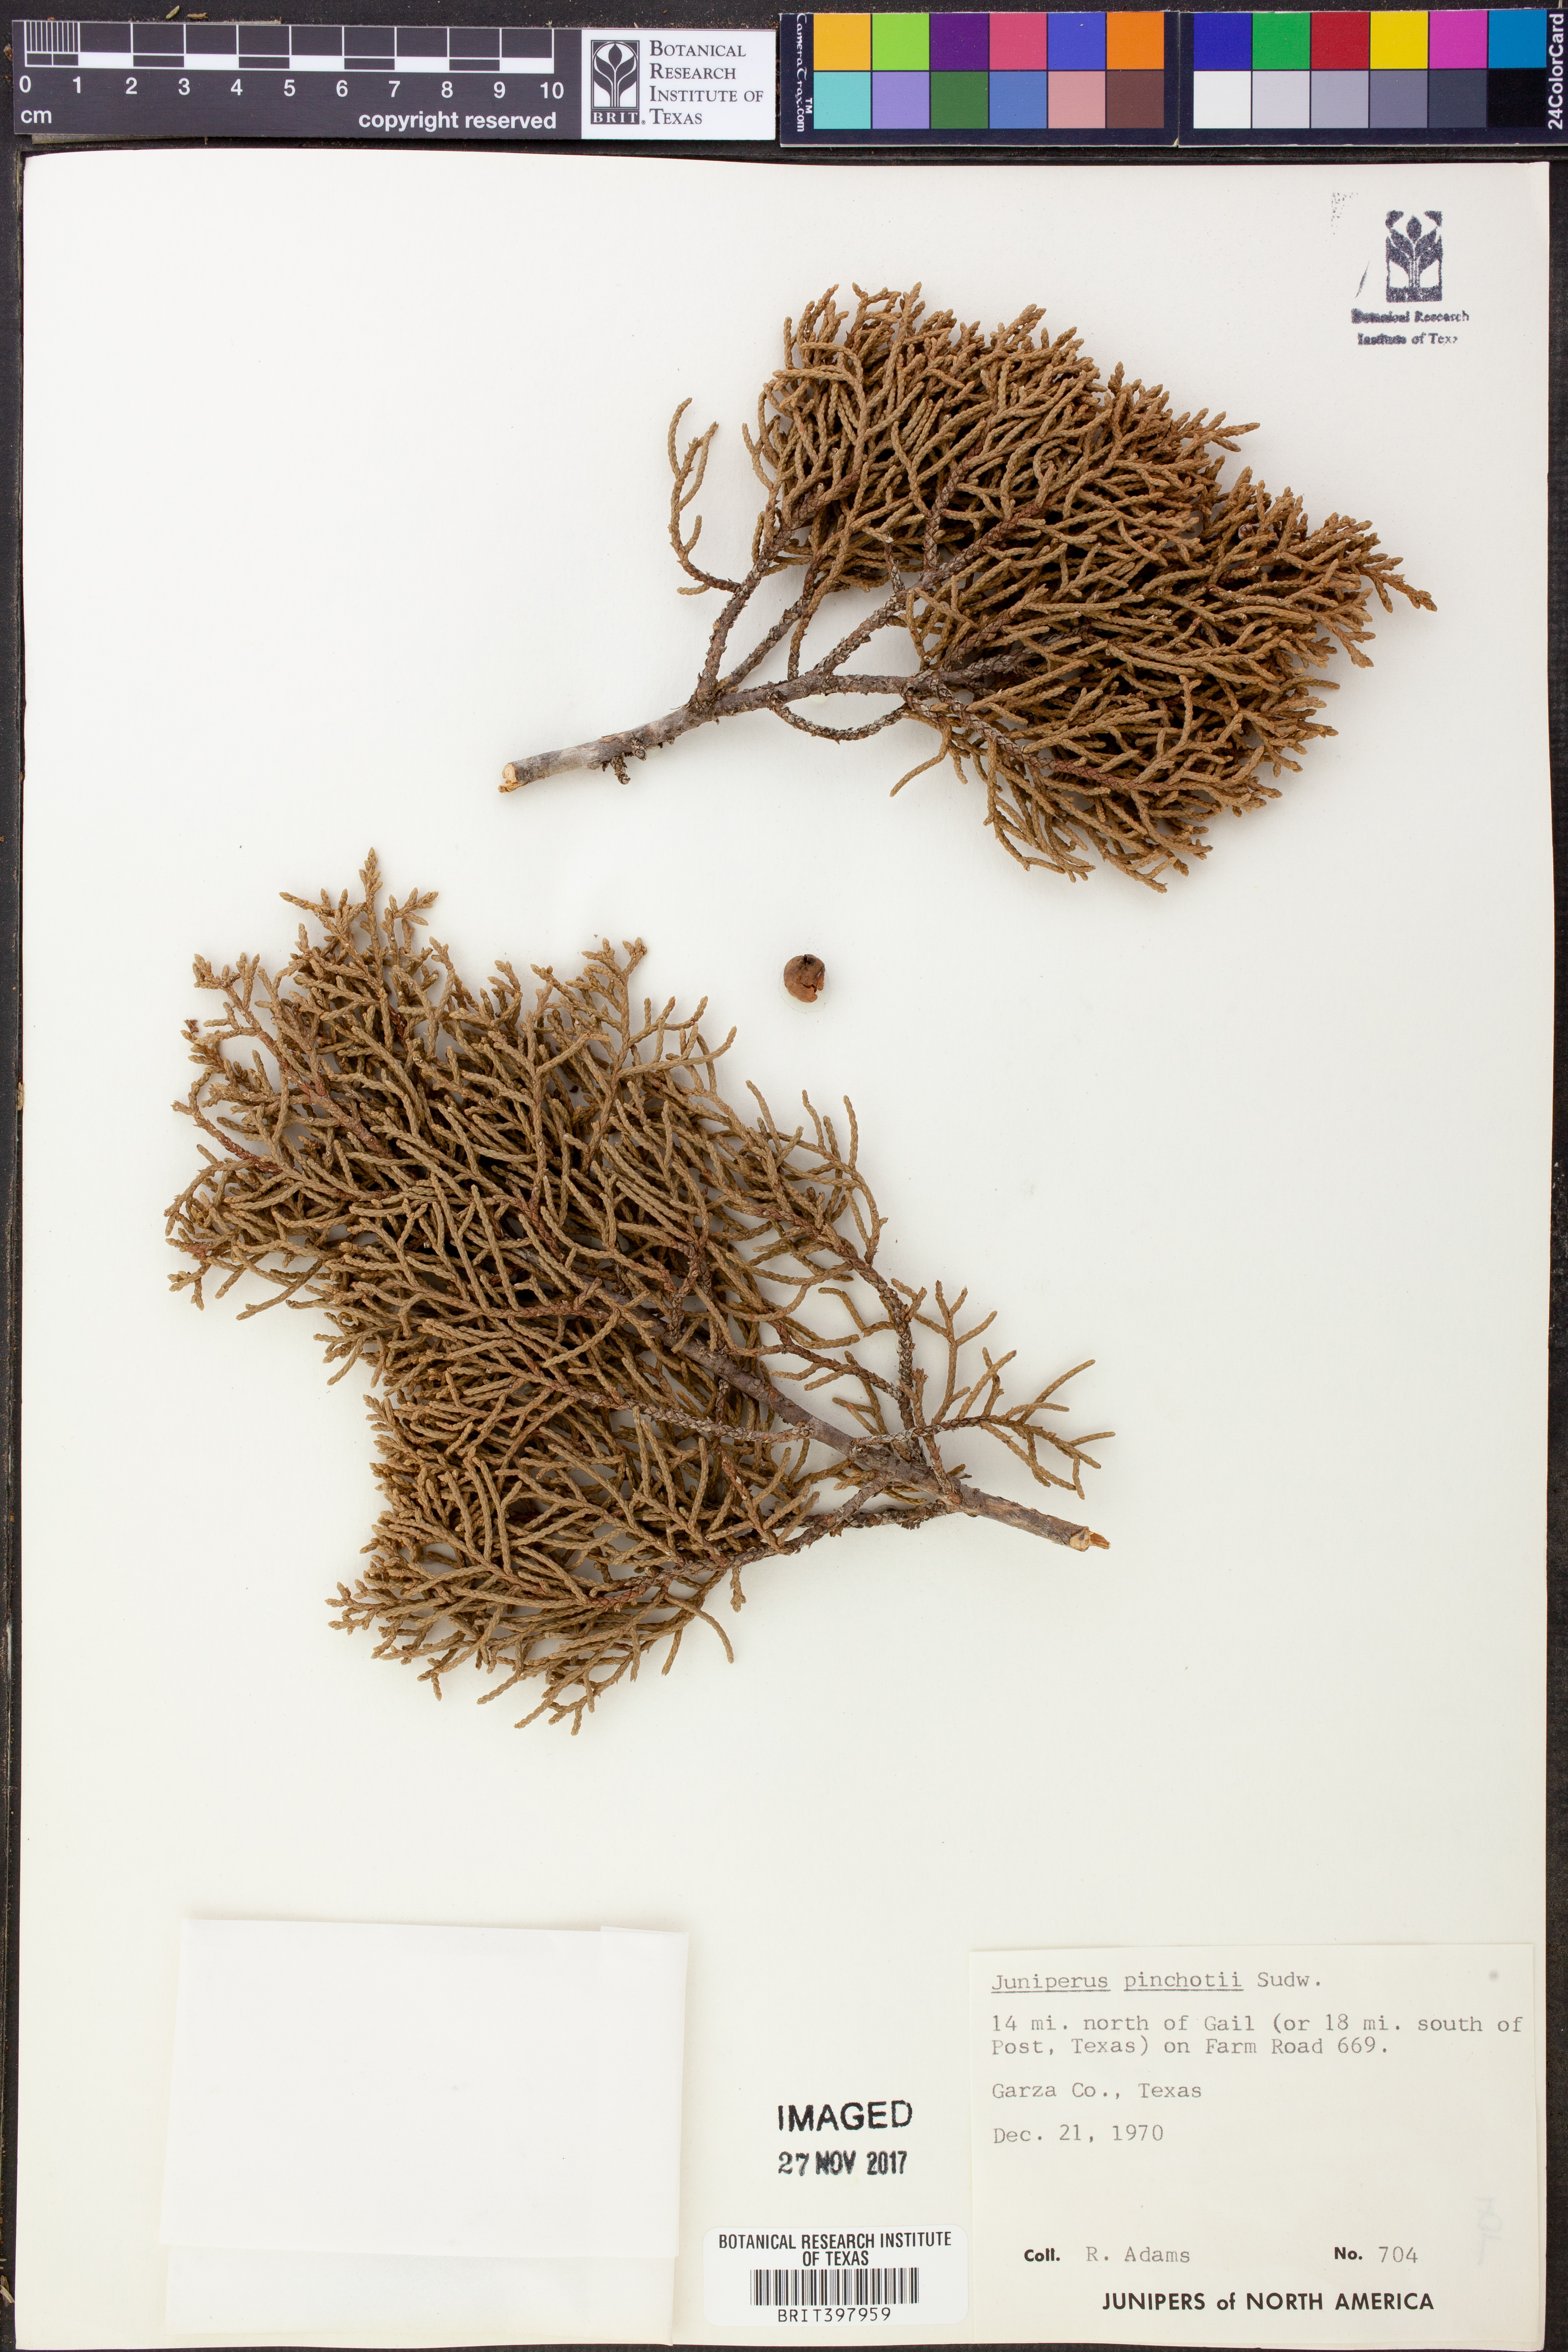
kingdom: Plantae
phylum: Tracheophyta
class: Pinopsida
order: Pinales
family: Cupressaceae
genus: Juniperus
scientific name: Juniperus pinchotii
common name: Pinchot juniper
